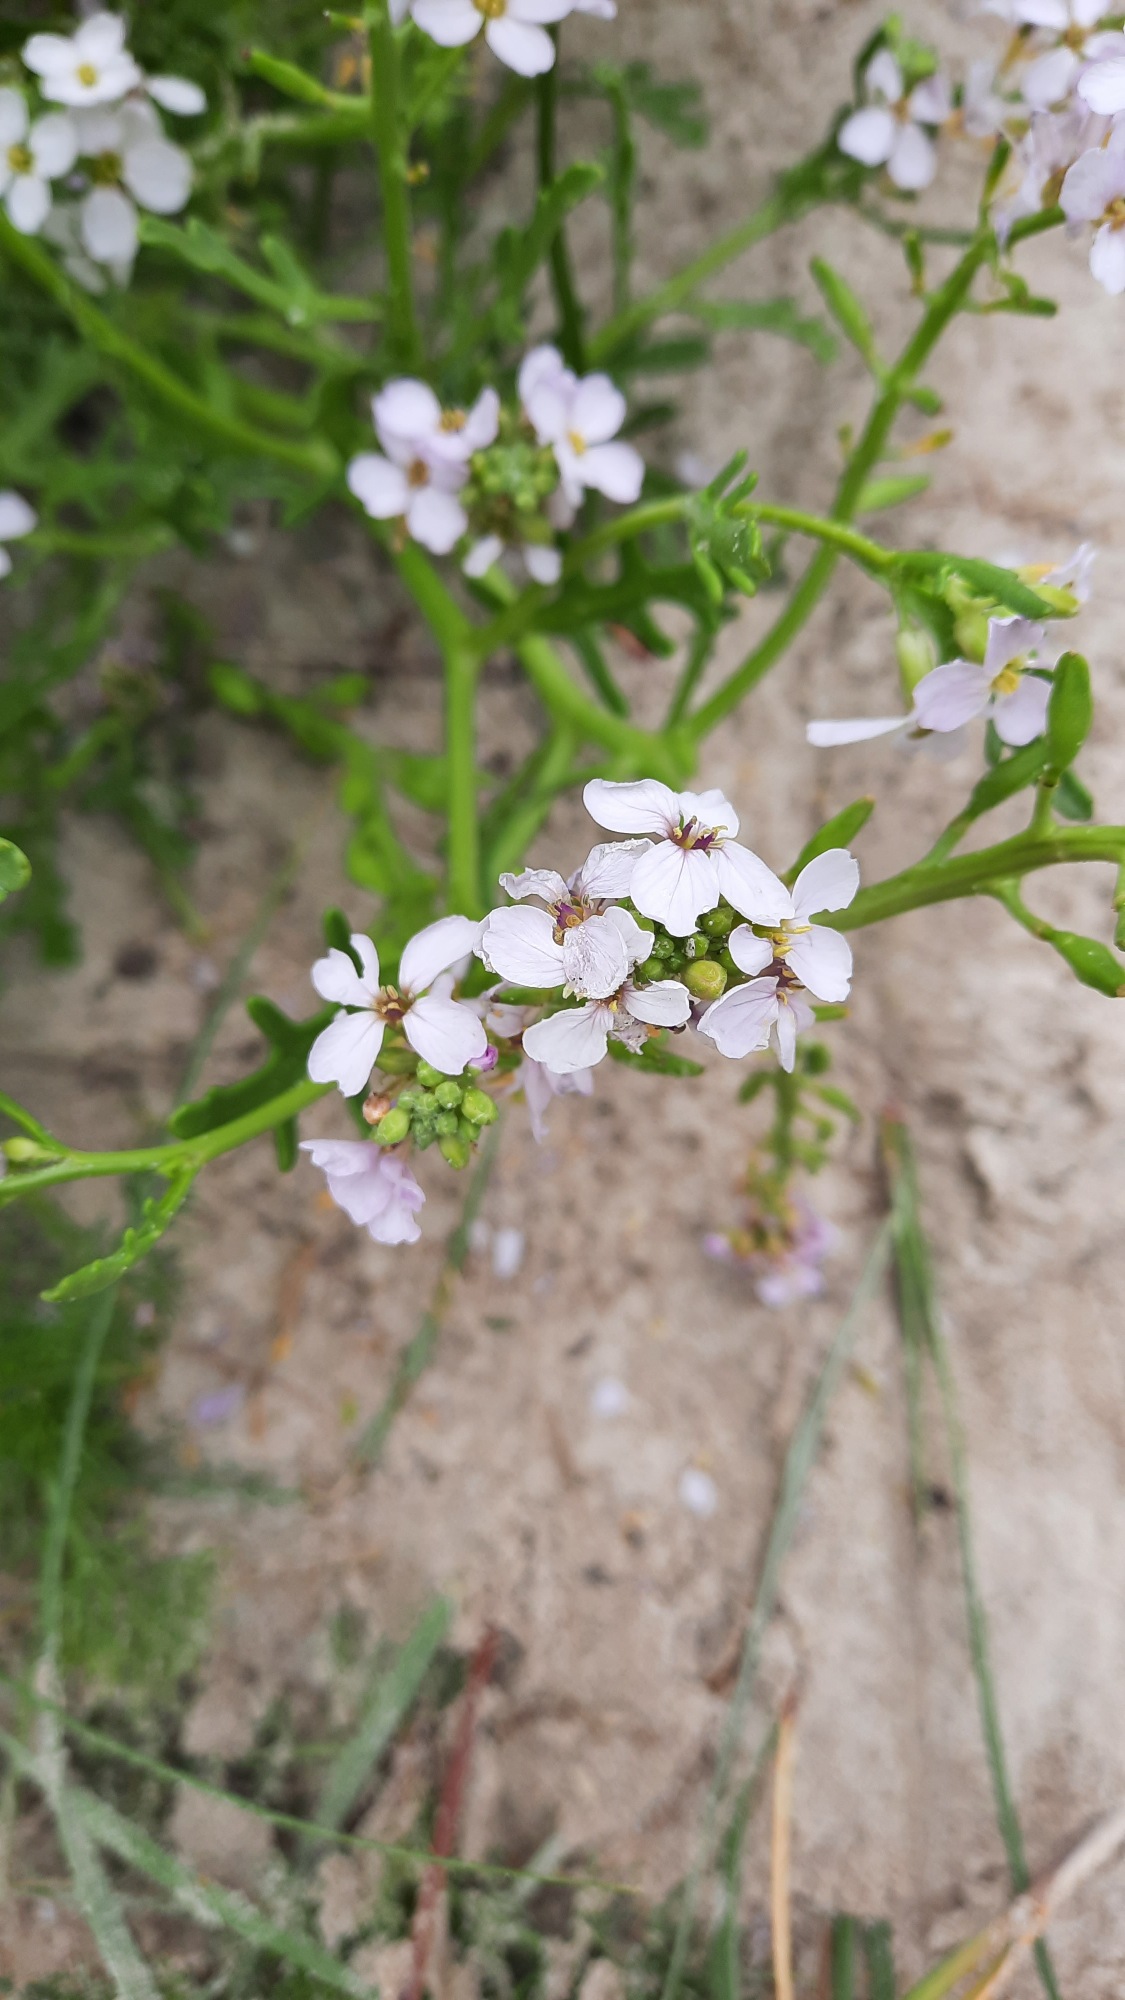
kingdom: Plantae
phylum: Tracheophyta
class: Magnoliopsida
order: Brassicales
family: Brassicaceae
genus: Cakile
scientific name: Cakile maritima
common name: Strandsennep
